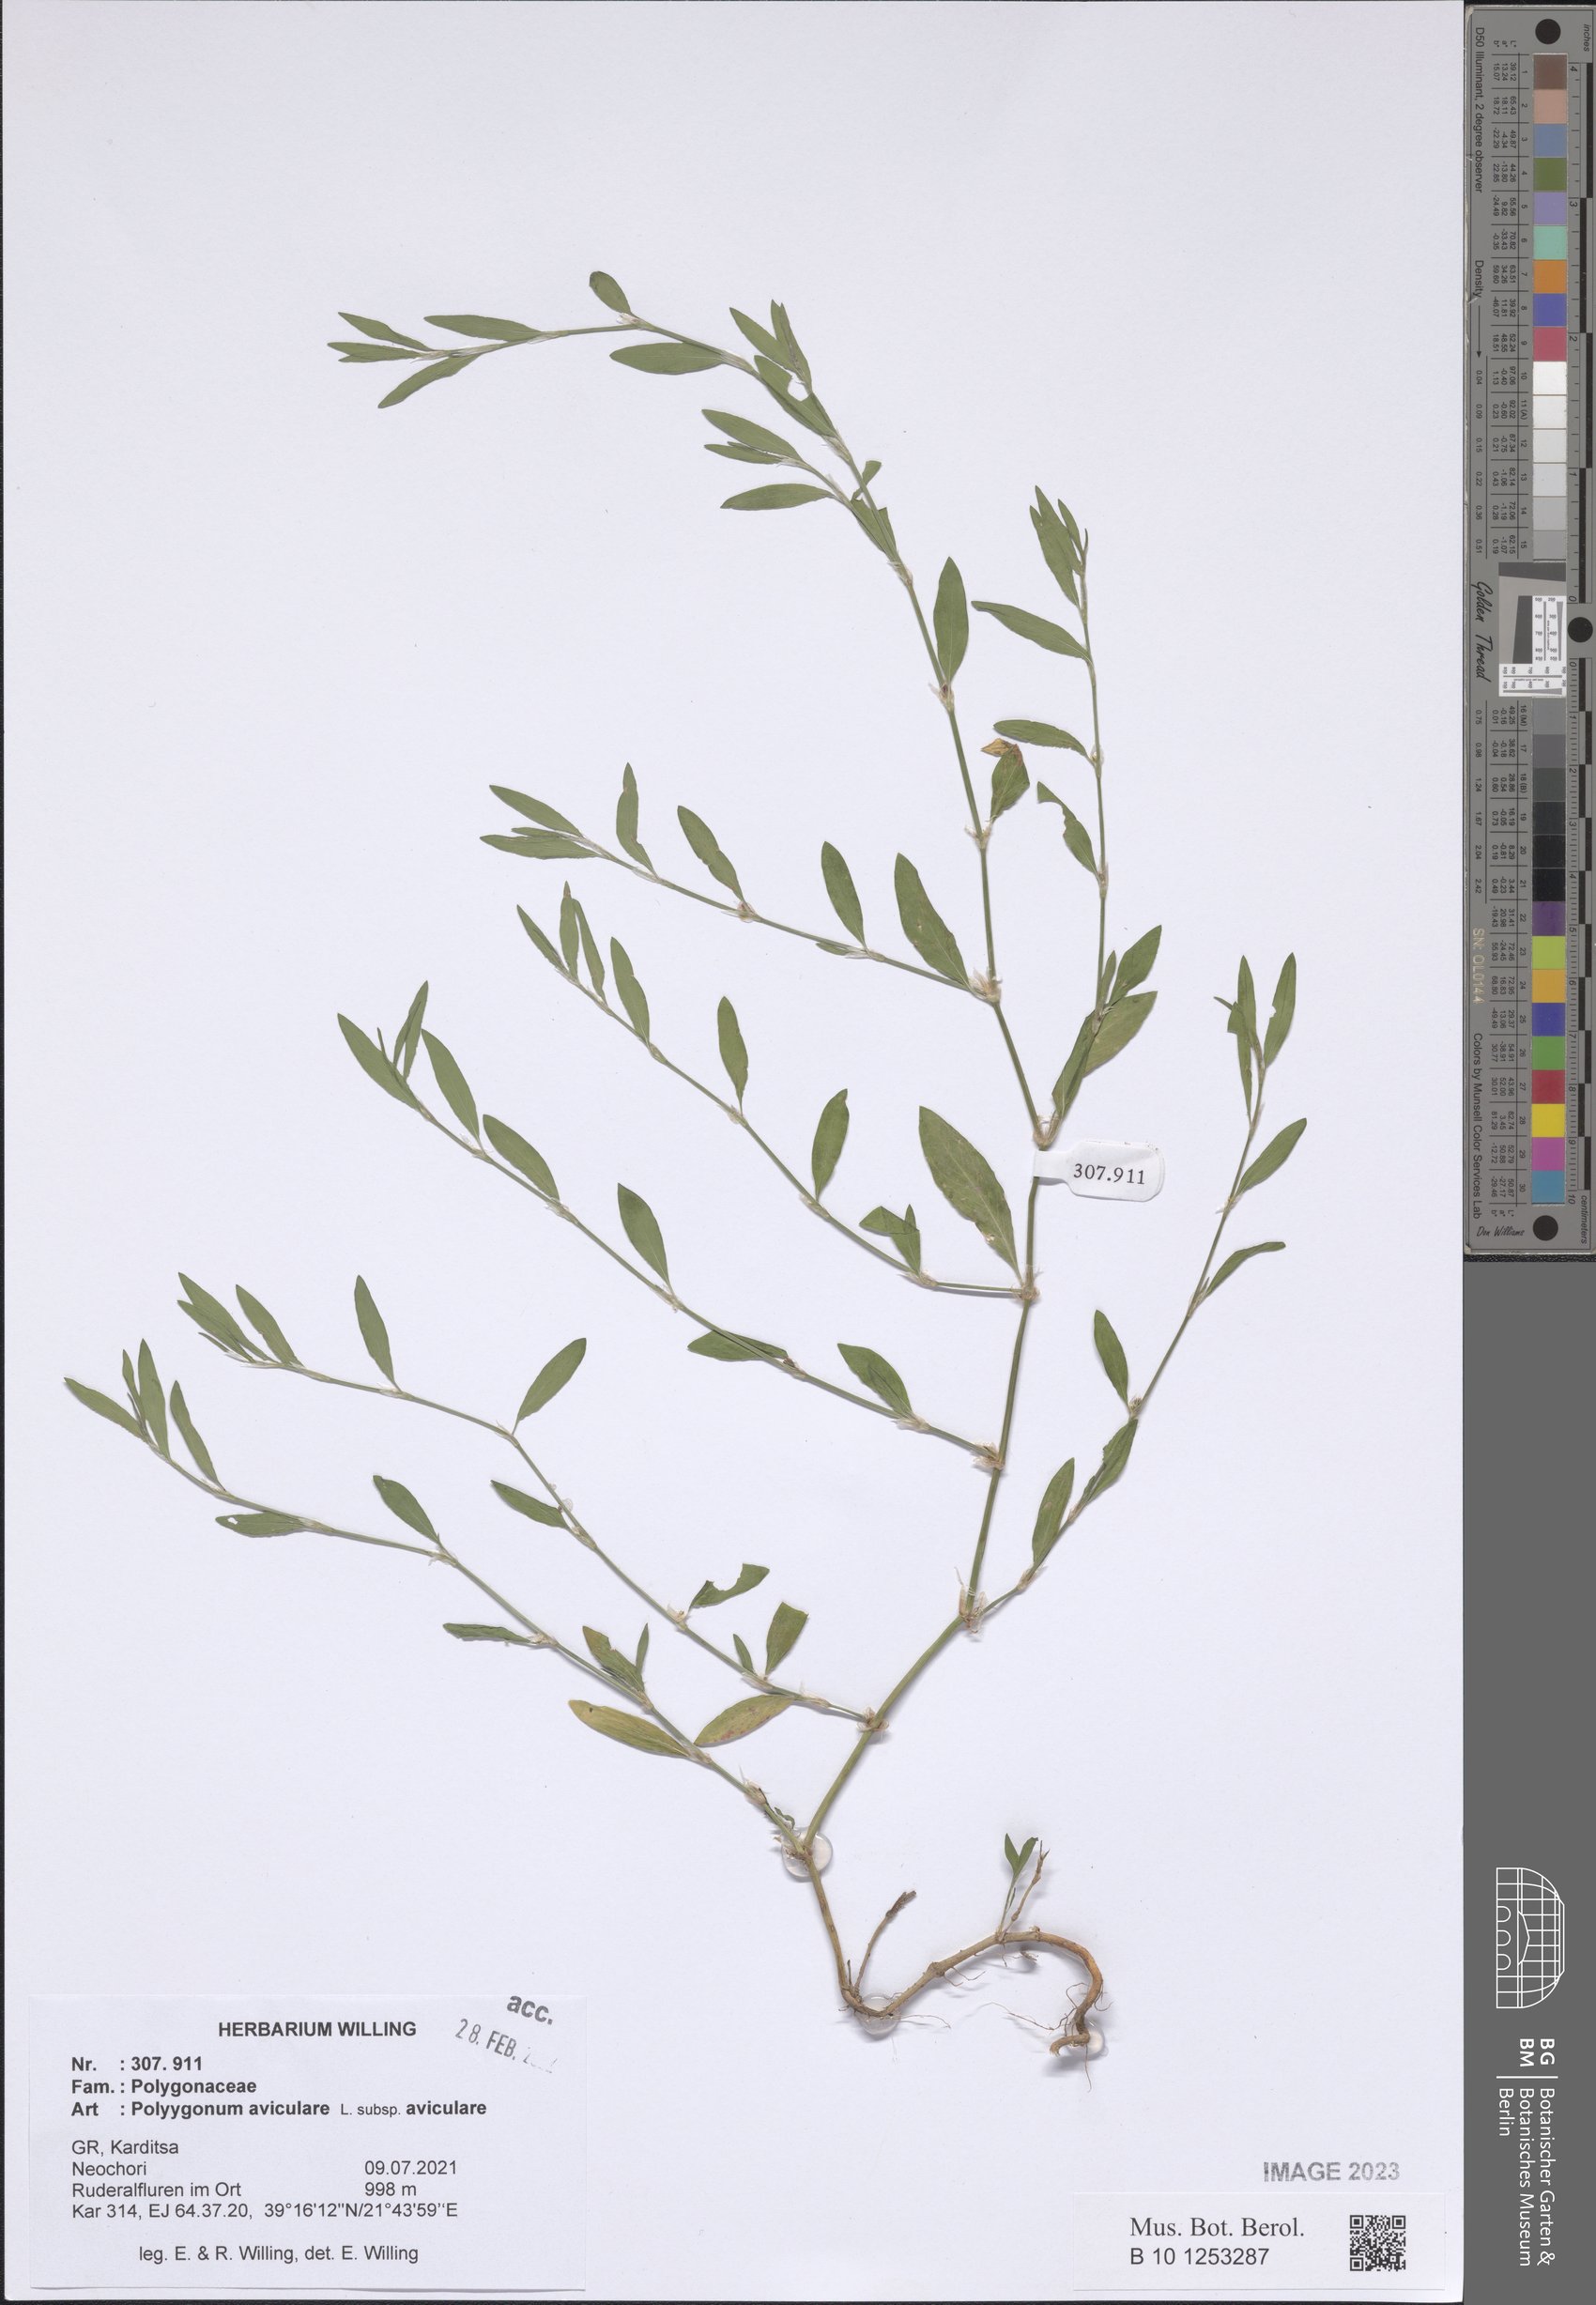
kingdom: Plantae
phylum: Tracheophyta
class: Magnoliopsida
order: Caryophyllales
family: Polygonaceae
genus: Polygonum
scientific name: Polygonum aviculare
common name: Prostrate knotweed
